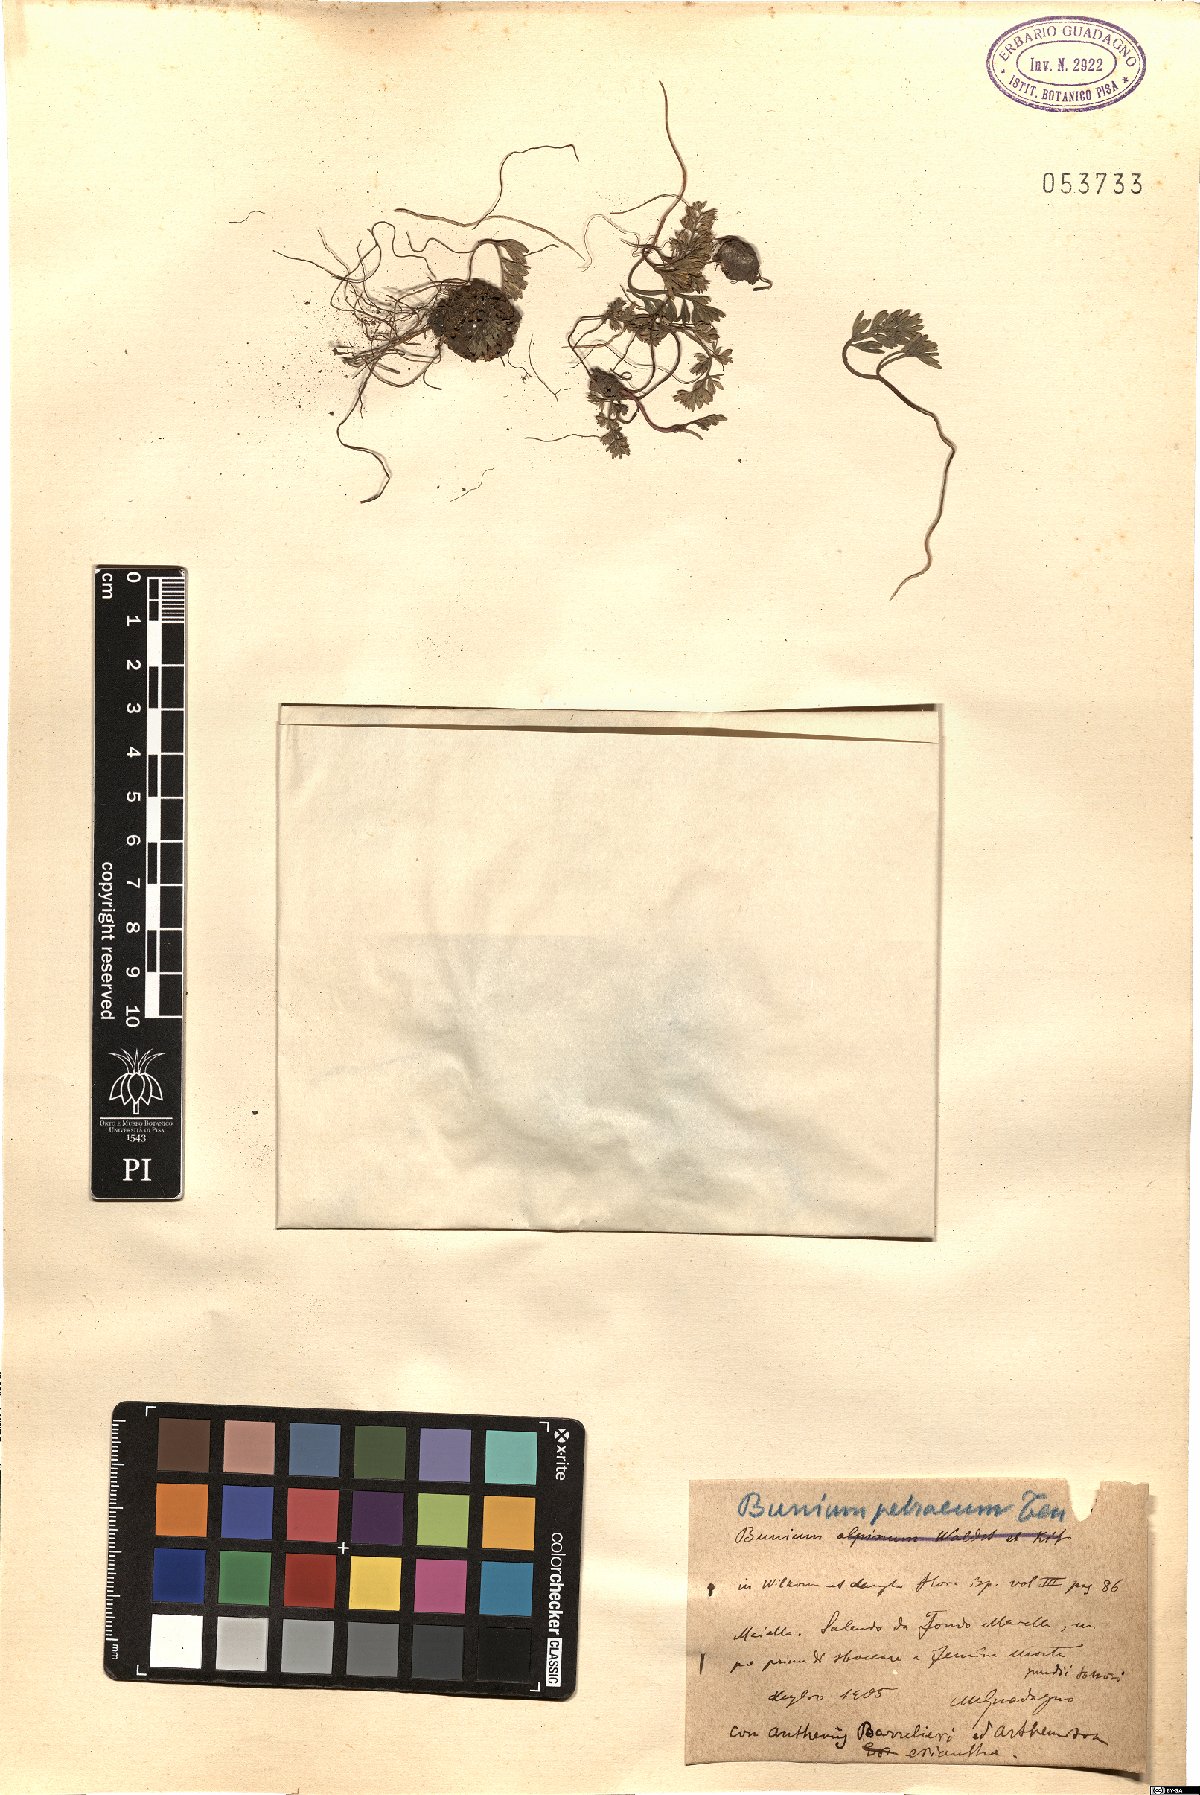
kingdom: Plantae
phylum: Tracheophyta
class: Magnoliopsida
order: Apiales
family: Apiaceae
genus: Bunium
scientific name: Bunium alpinum
